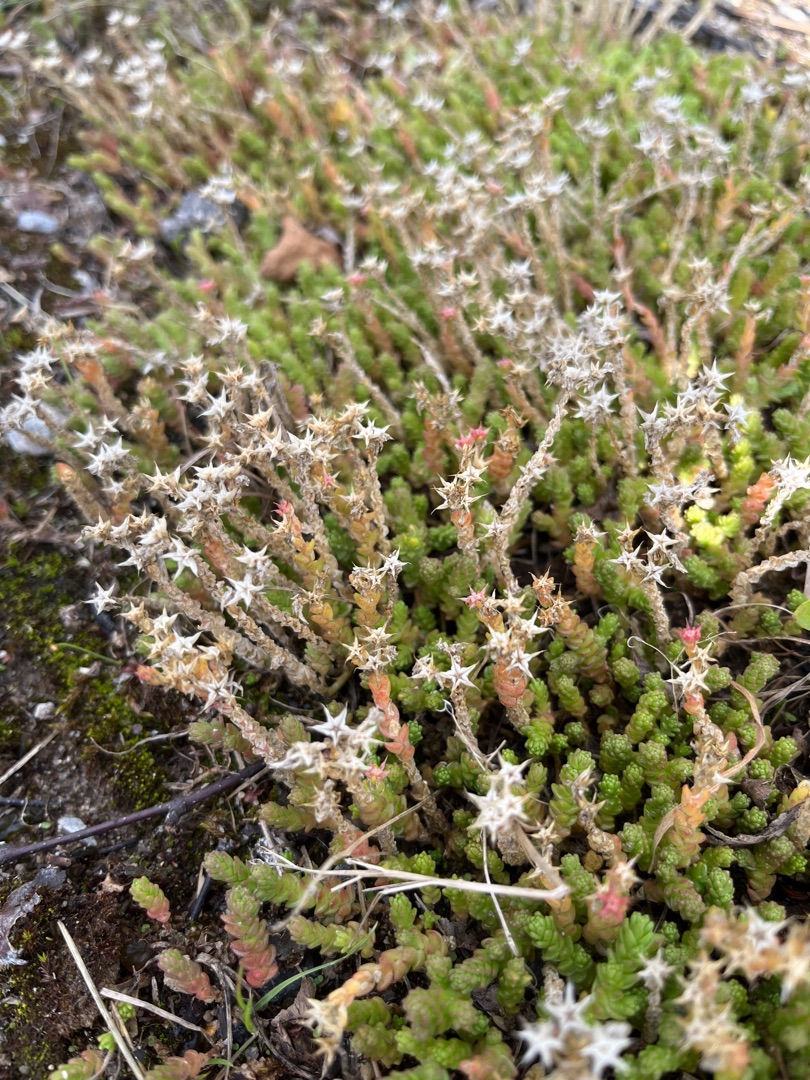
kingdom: Plantae
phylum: Tracheophyta
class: Magnoliopsida
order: Saxifragales
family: Crassulaceae
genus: Sedum
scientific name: Sedum acre
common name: Bidende stenurt
